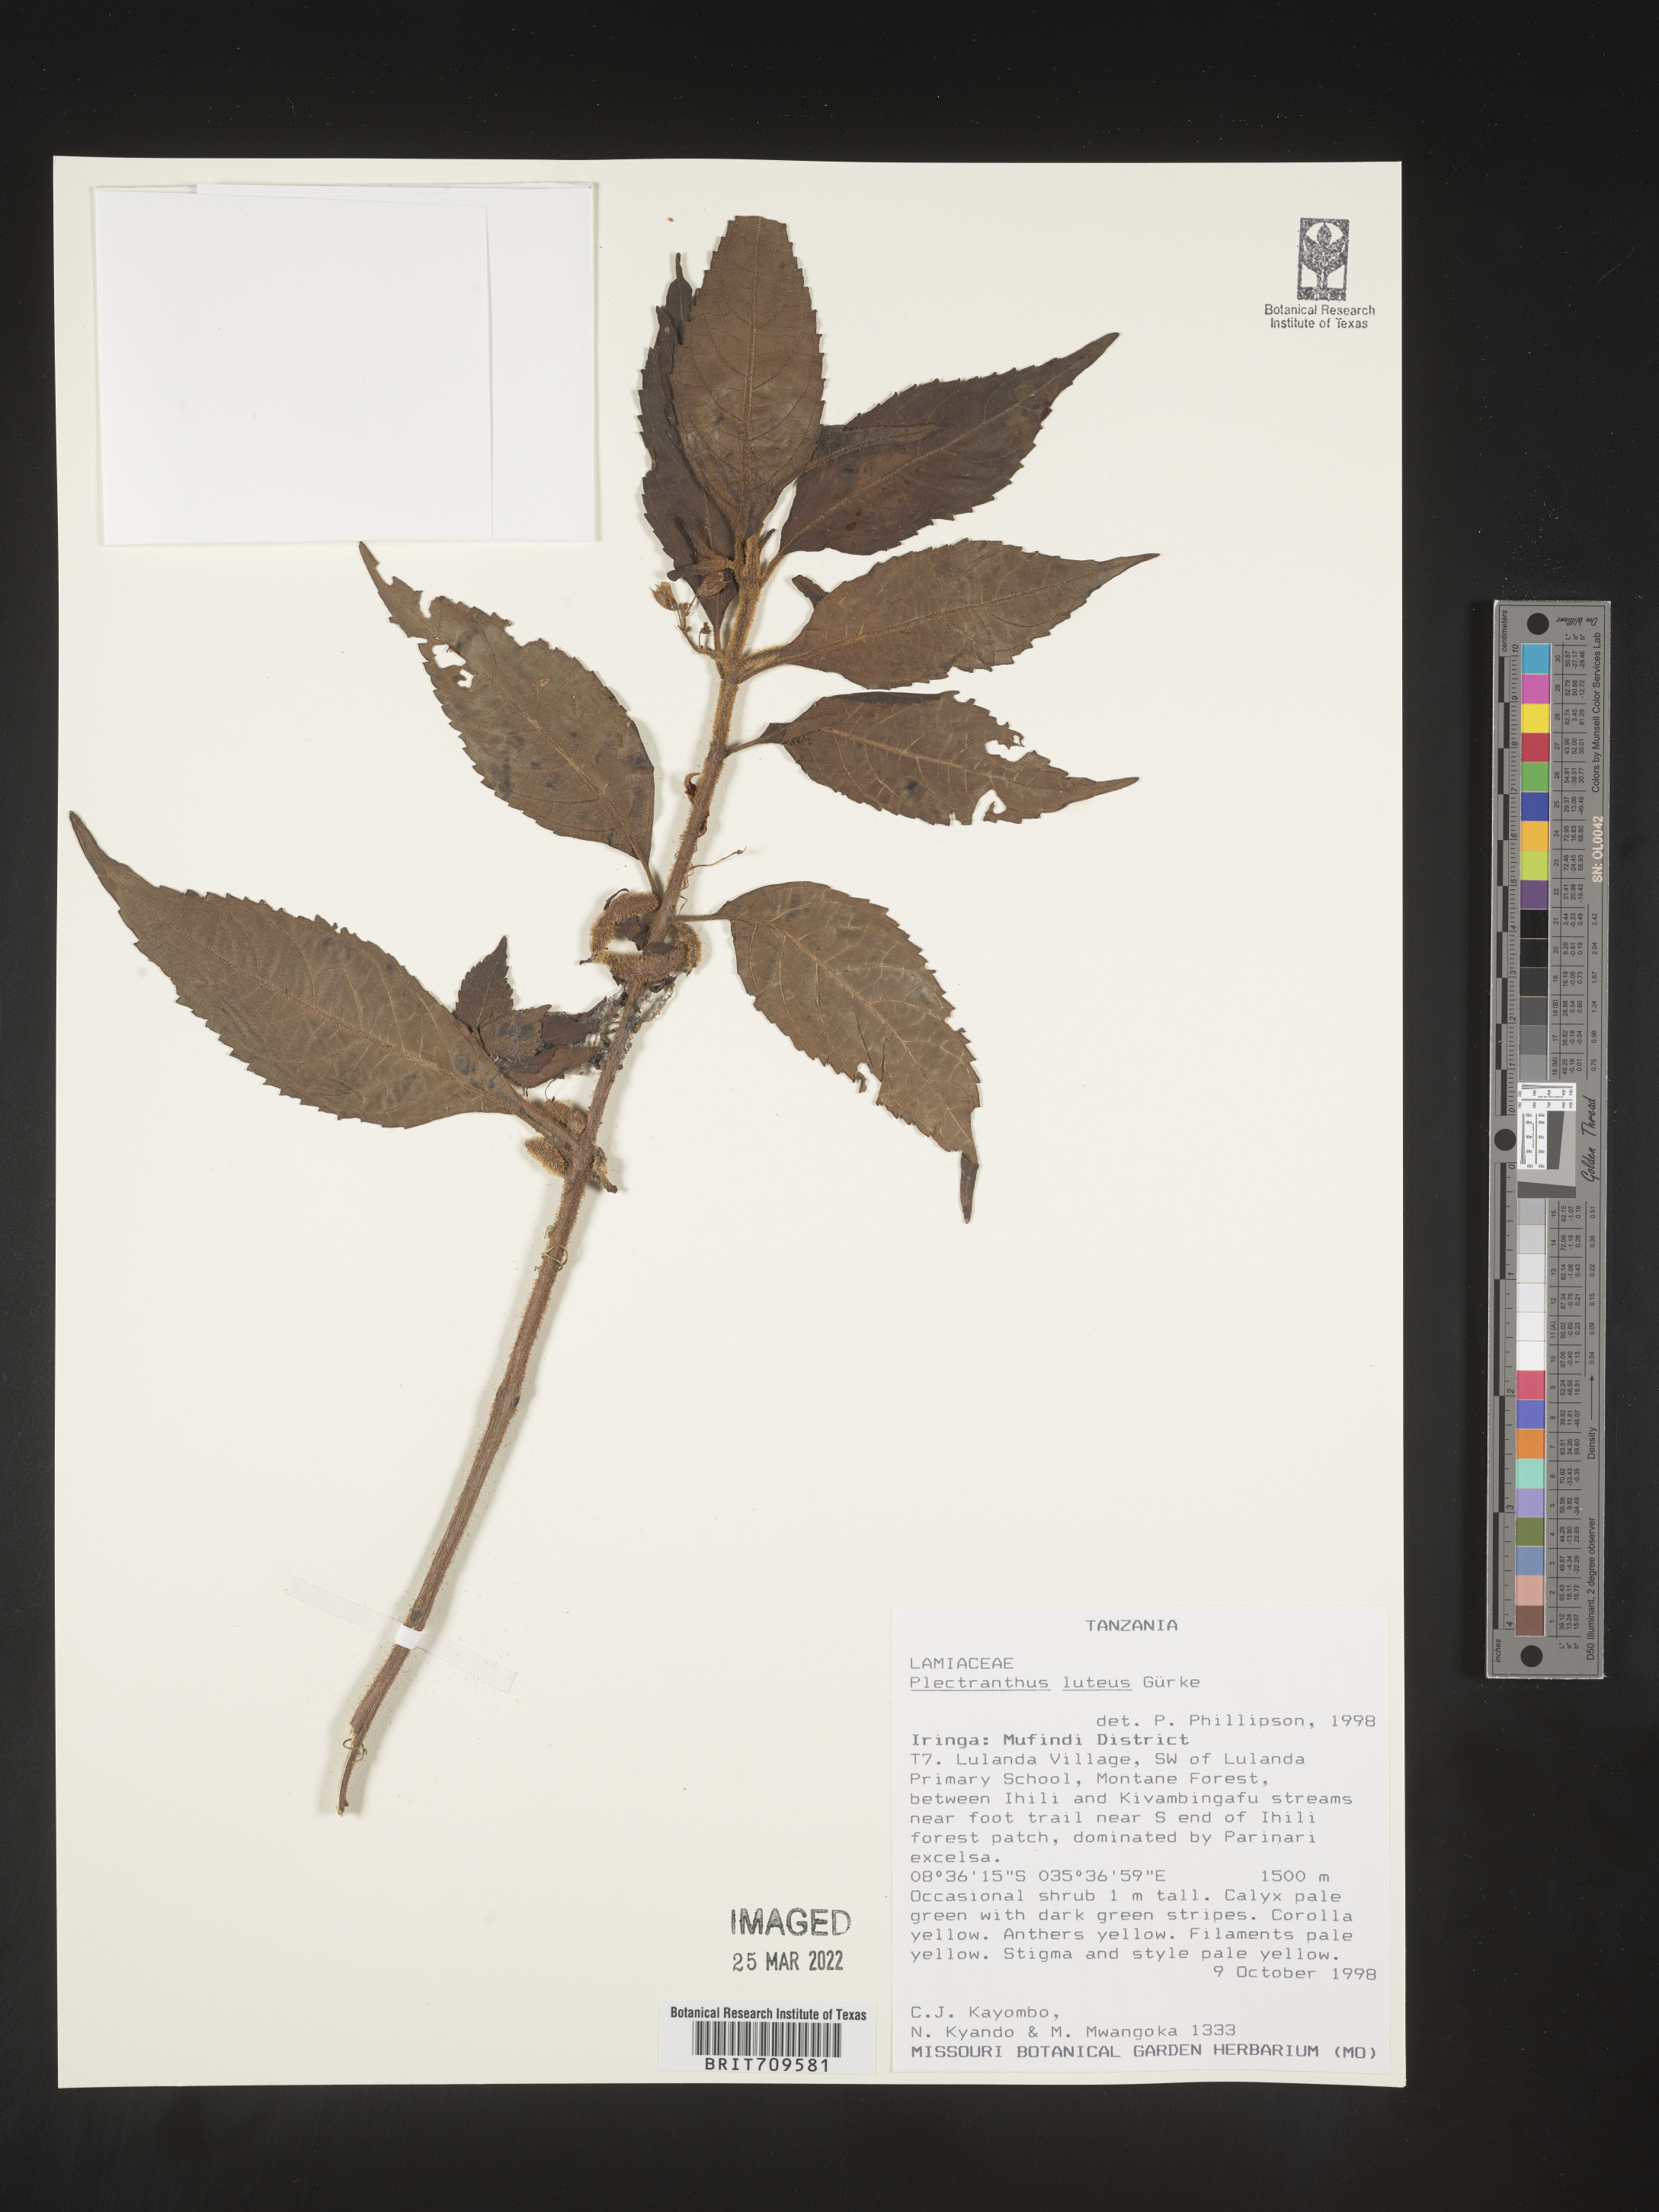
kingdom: Plantae
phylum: Tracheophyta
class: Magnoliopsida
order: Lamiales
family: Lamiaceae
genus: Plectranthus
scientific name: Plectranthus
